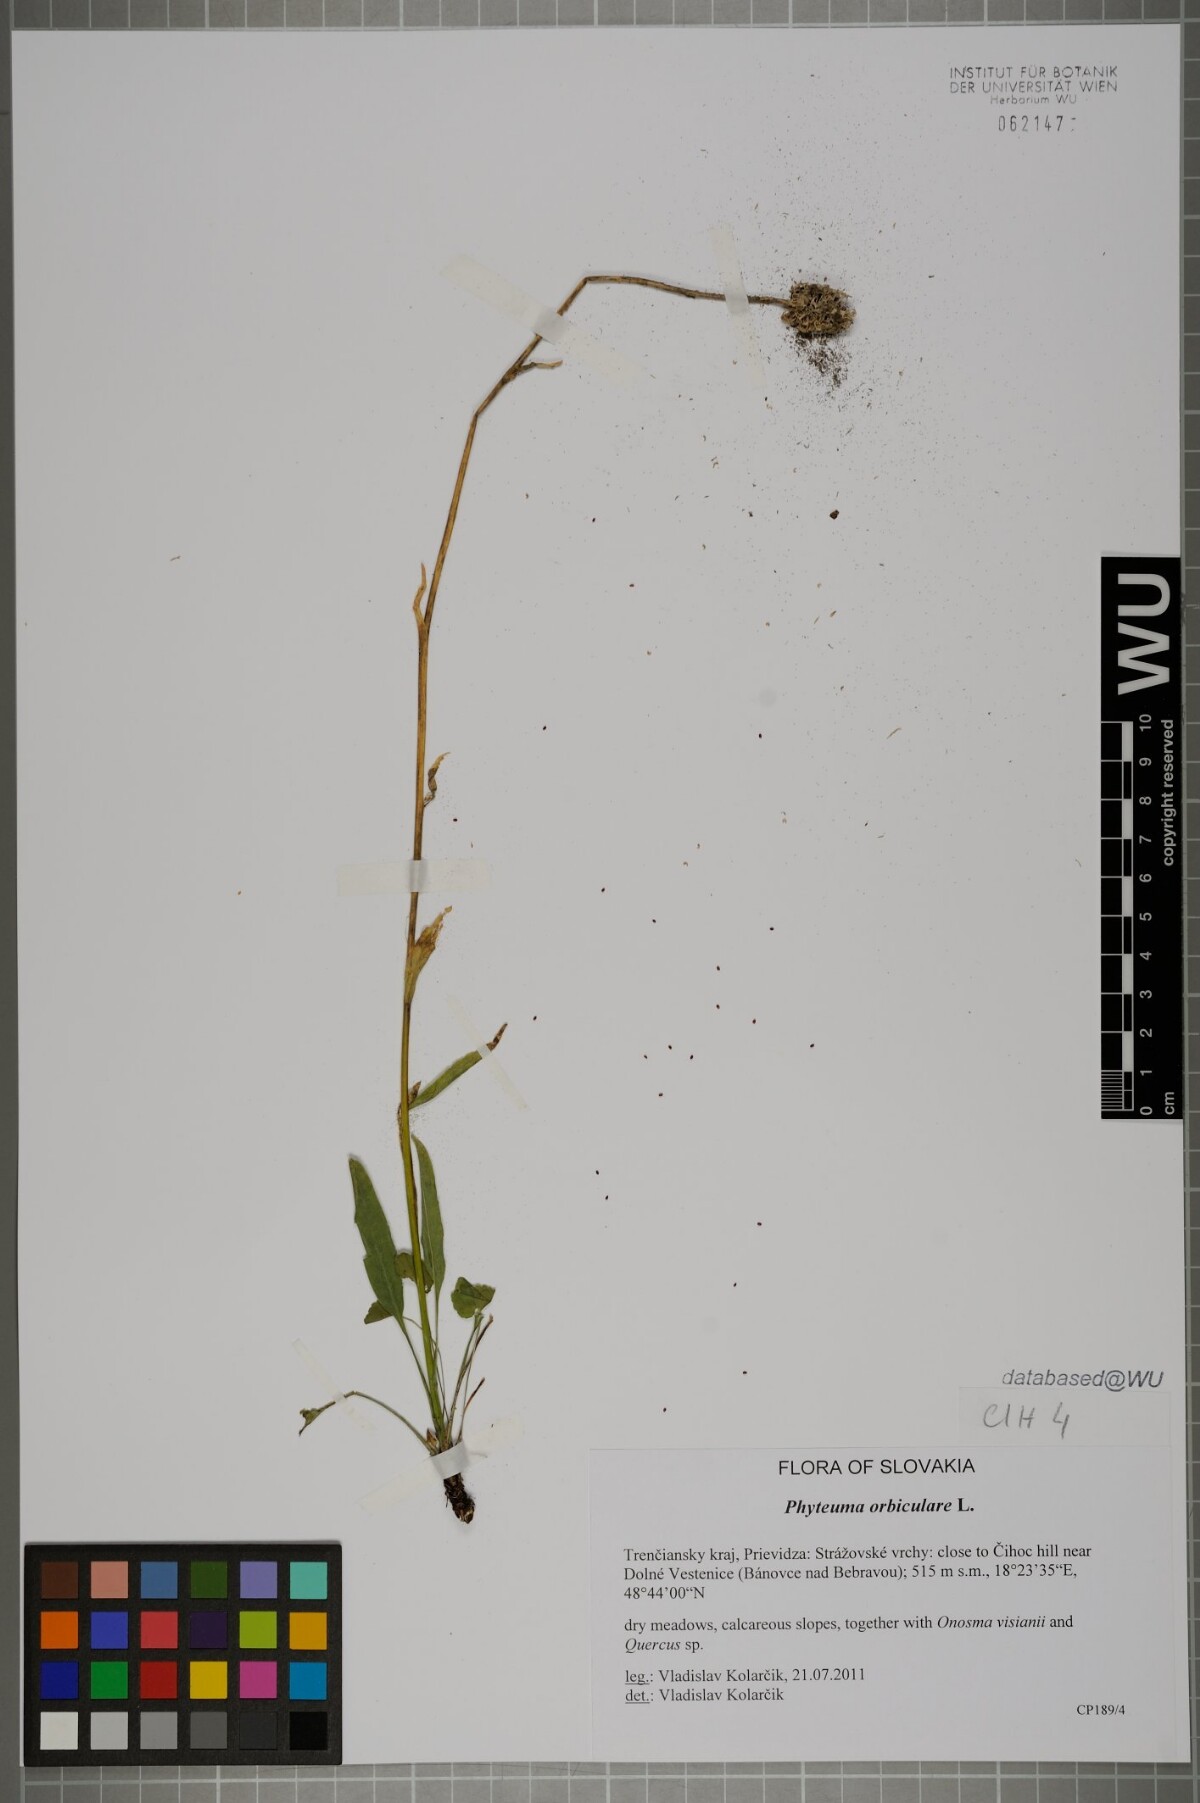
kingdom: Plantae
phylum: Tracheophyta
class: Magnoliopsida
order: Asterales
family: Campanulaceae
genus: Phyteuma
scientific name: Phyteuma orbiculare
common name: Round-headed rampion
